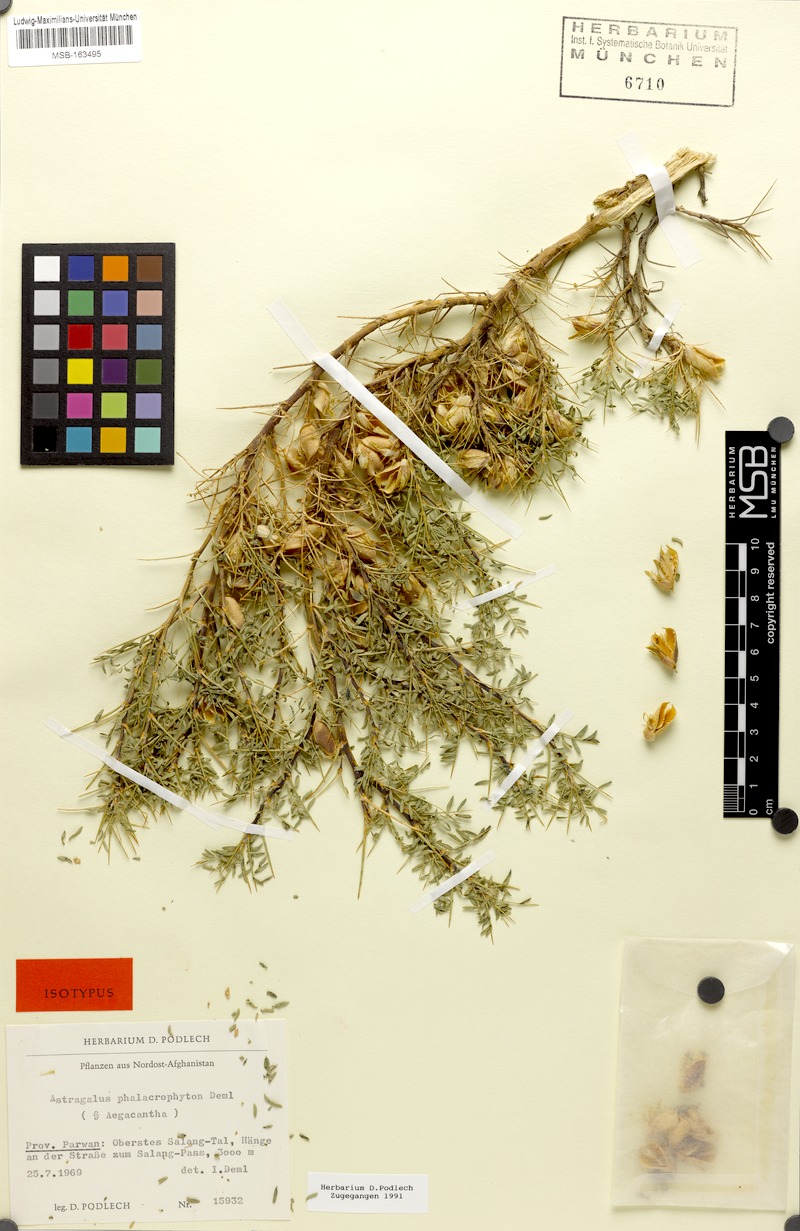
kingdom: Plantae
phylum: Tracheophyta
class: Magnoliopsida
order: Fabales
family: Fabaceae
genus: Astragalus
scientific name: Astragalus phalacrophyton
